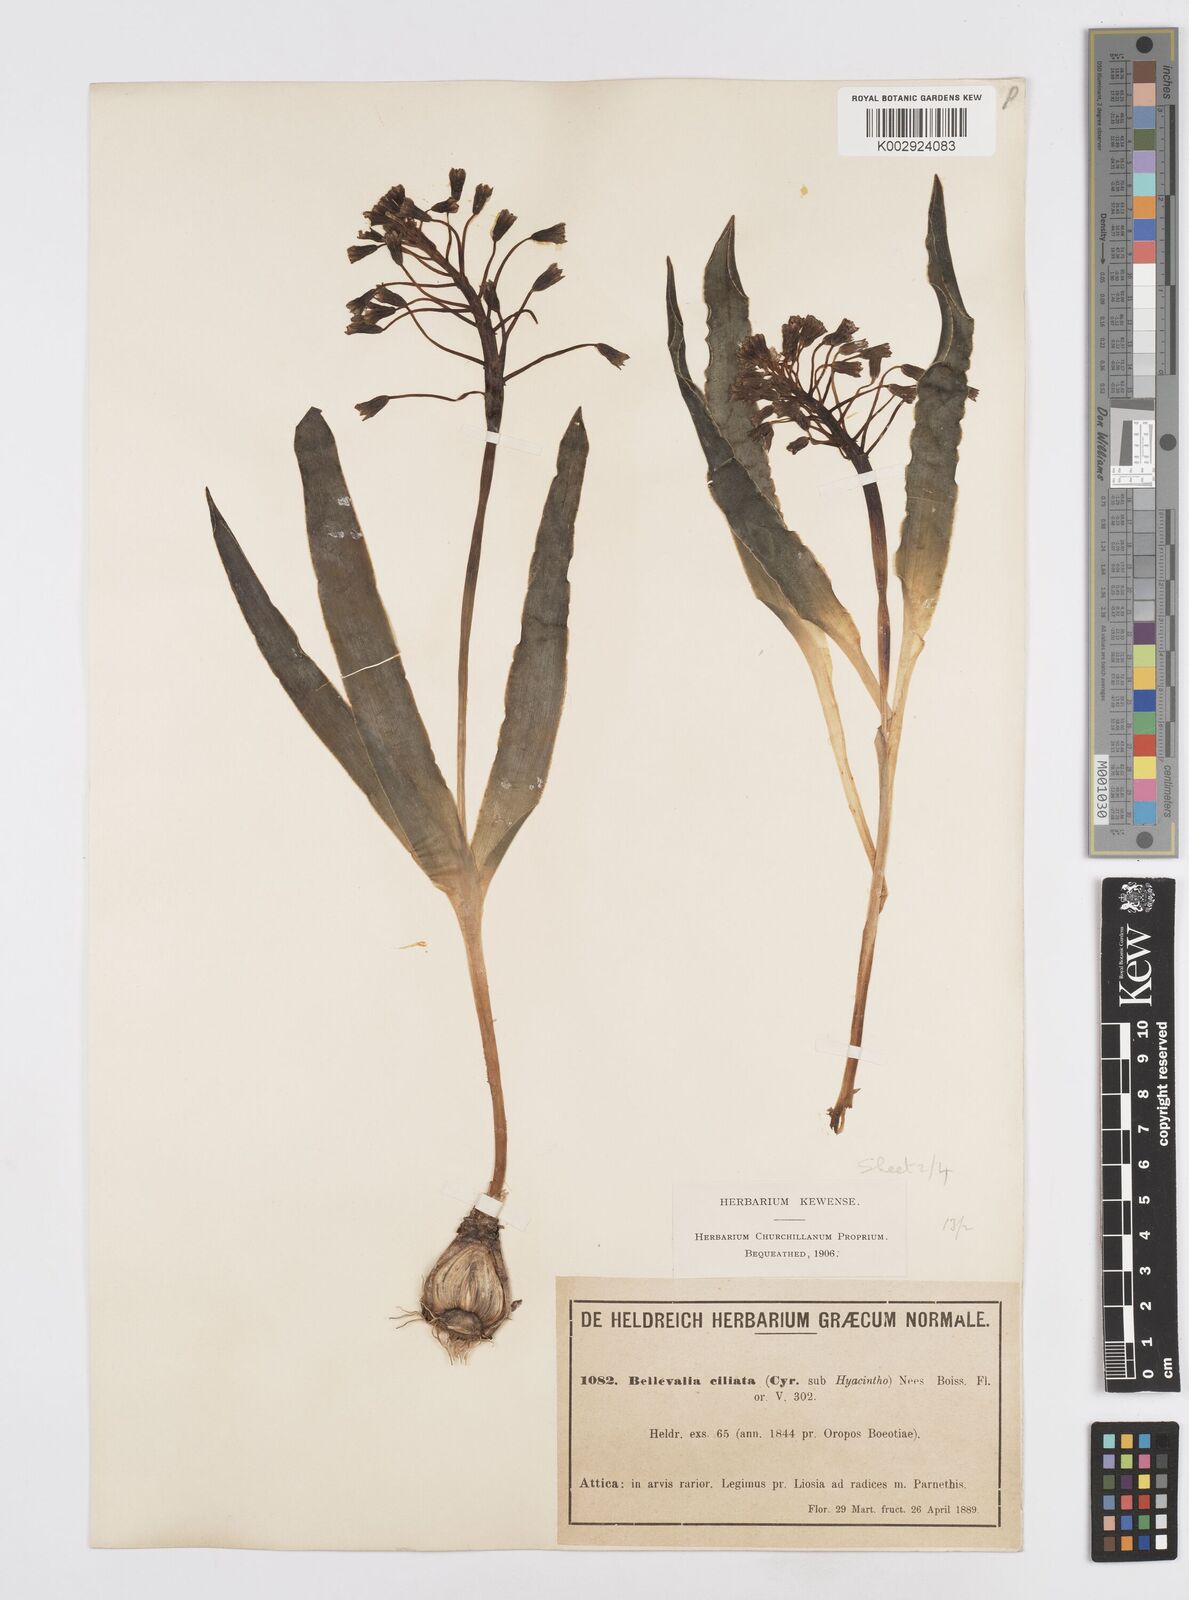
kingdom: Plantae
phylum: Tracheophyta
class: Liliopsida
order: Asparagales
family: Asparagaceae
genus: Bellevalia
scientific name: Bellevalia ciliata
